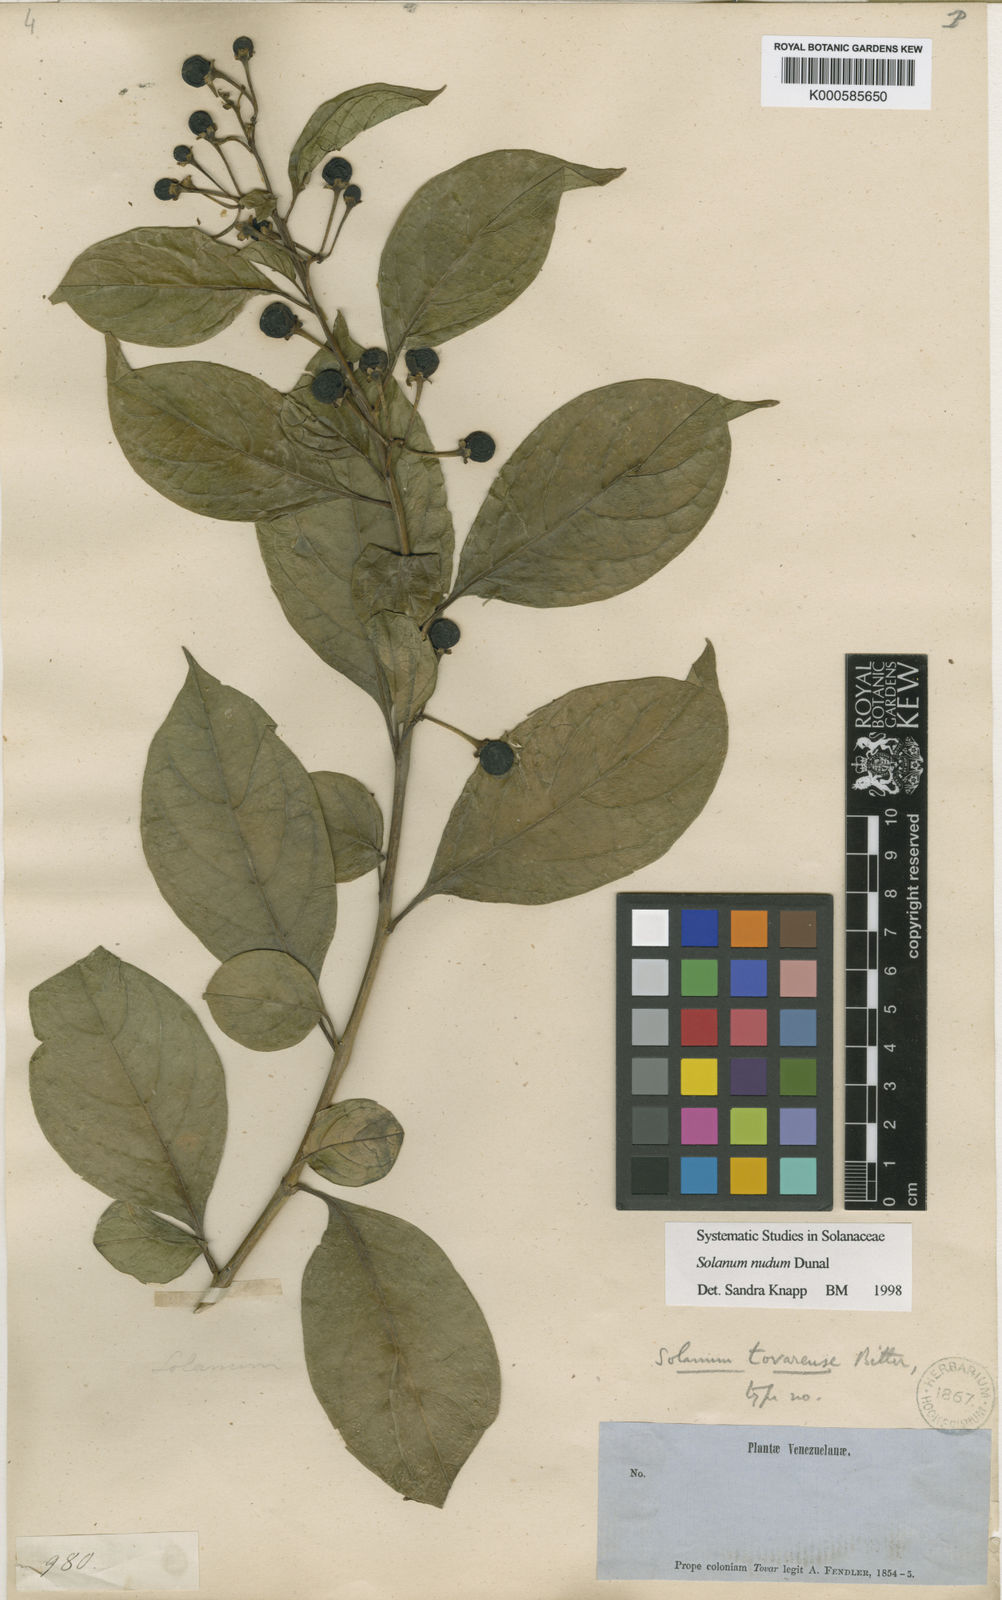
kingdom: Plantae
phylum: Tracheophyta
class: Magnoliopsida
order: Solanales
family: Solanaceae
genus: Solanum
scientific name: Solanum nudum
